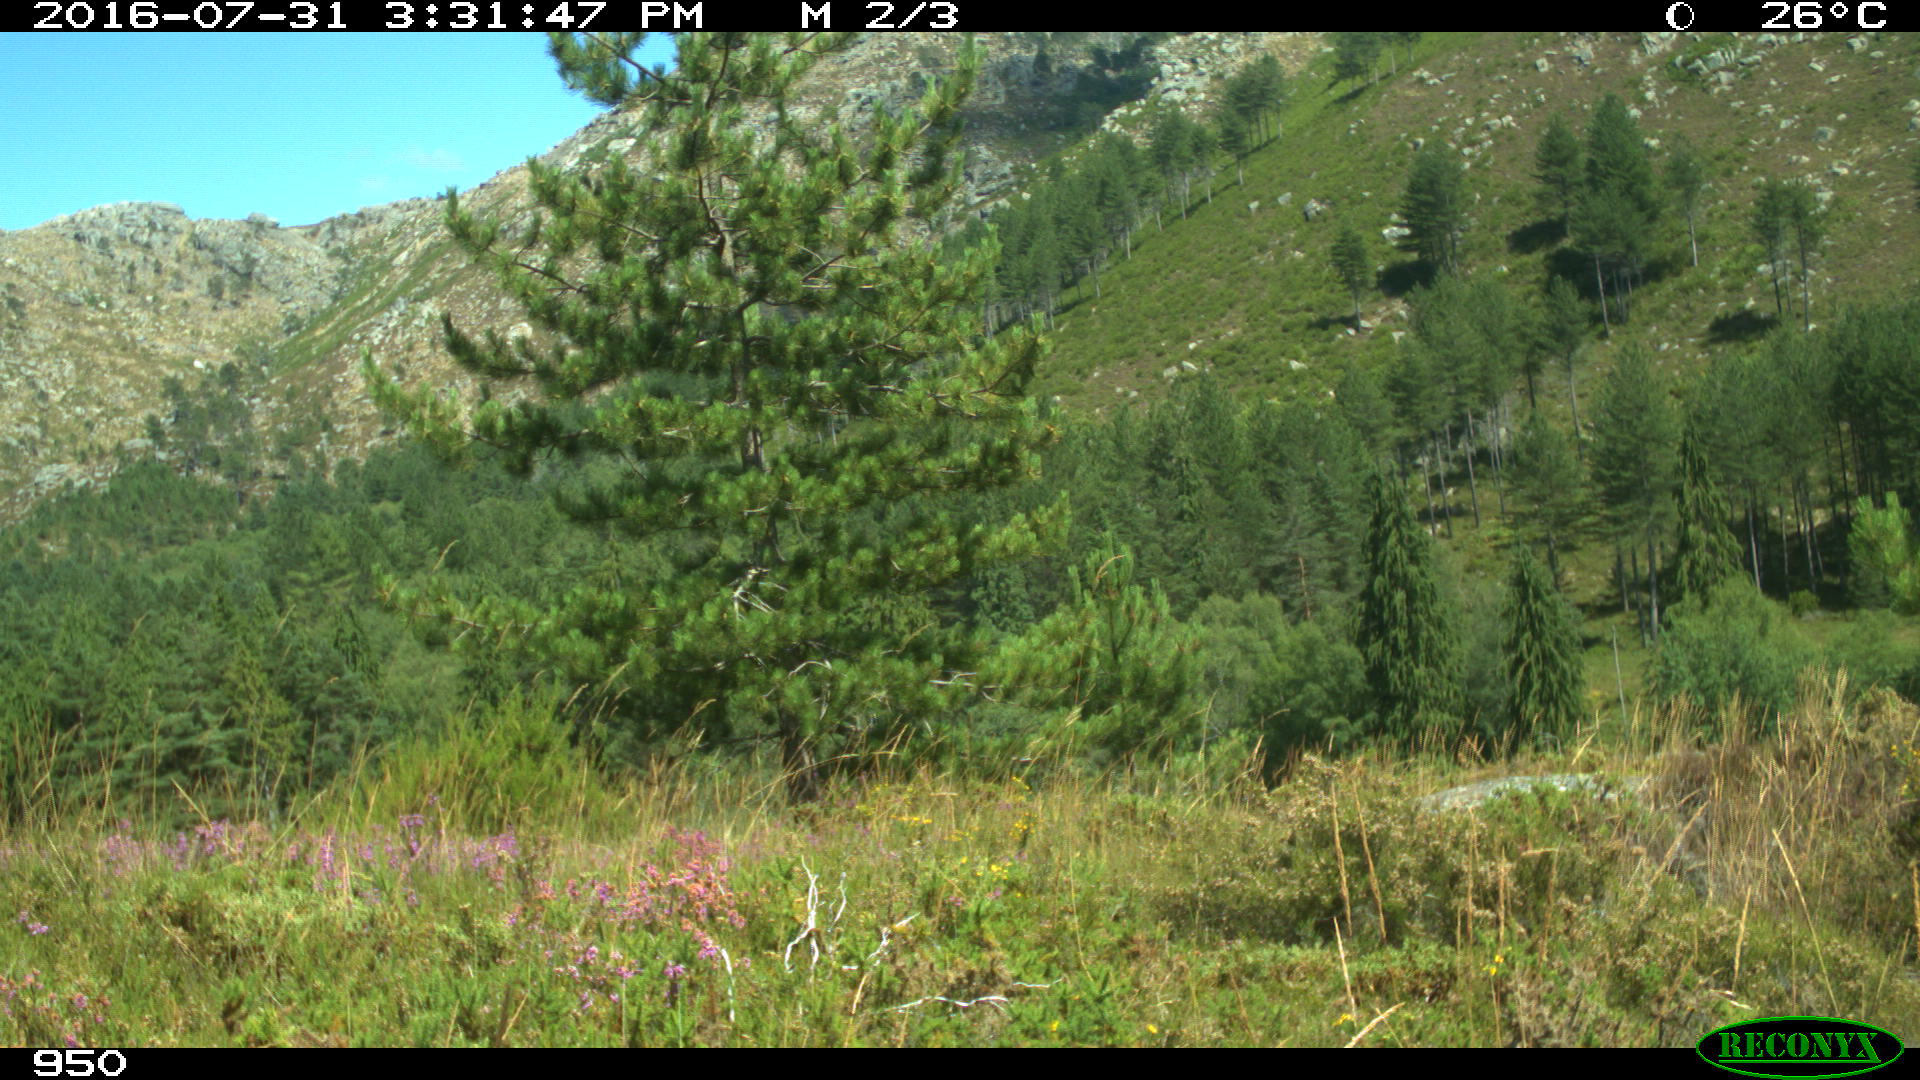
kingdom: Animalia
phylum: Chordata
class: Mammalia
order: Artiodactyla
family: Bovidae
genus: Bos
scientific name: Bos taurus
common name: Domesticated cattle
